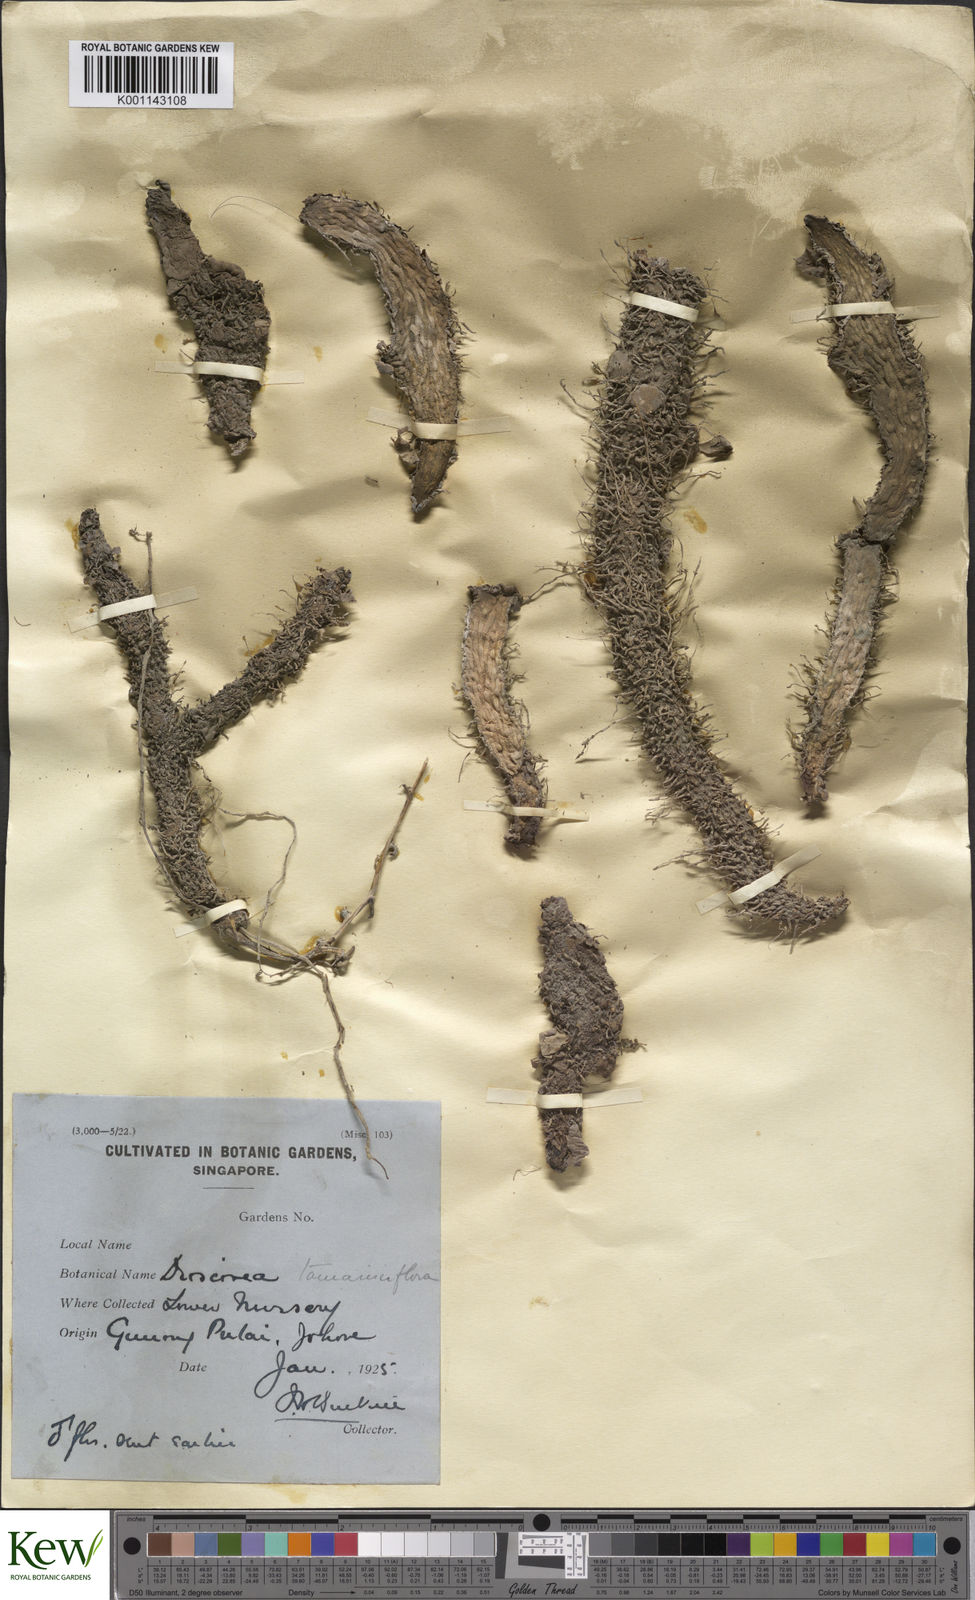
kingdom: Plantae
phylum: Tracheophyta
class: Liliopsida
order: Dioscoreales
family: Dioscoreaceae
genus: Dioscorea
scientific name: Dioscorea tamarisciflora
